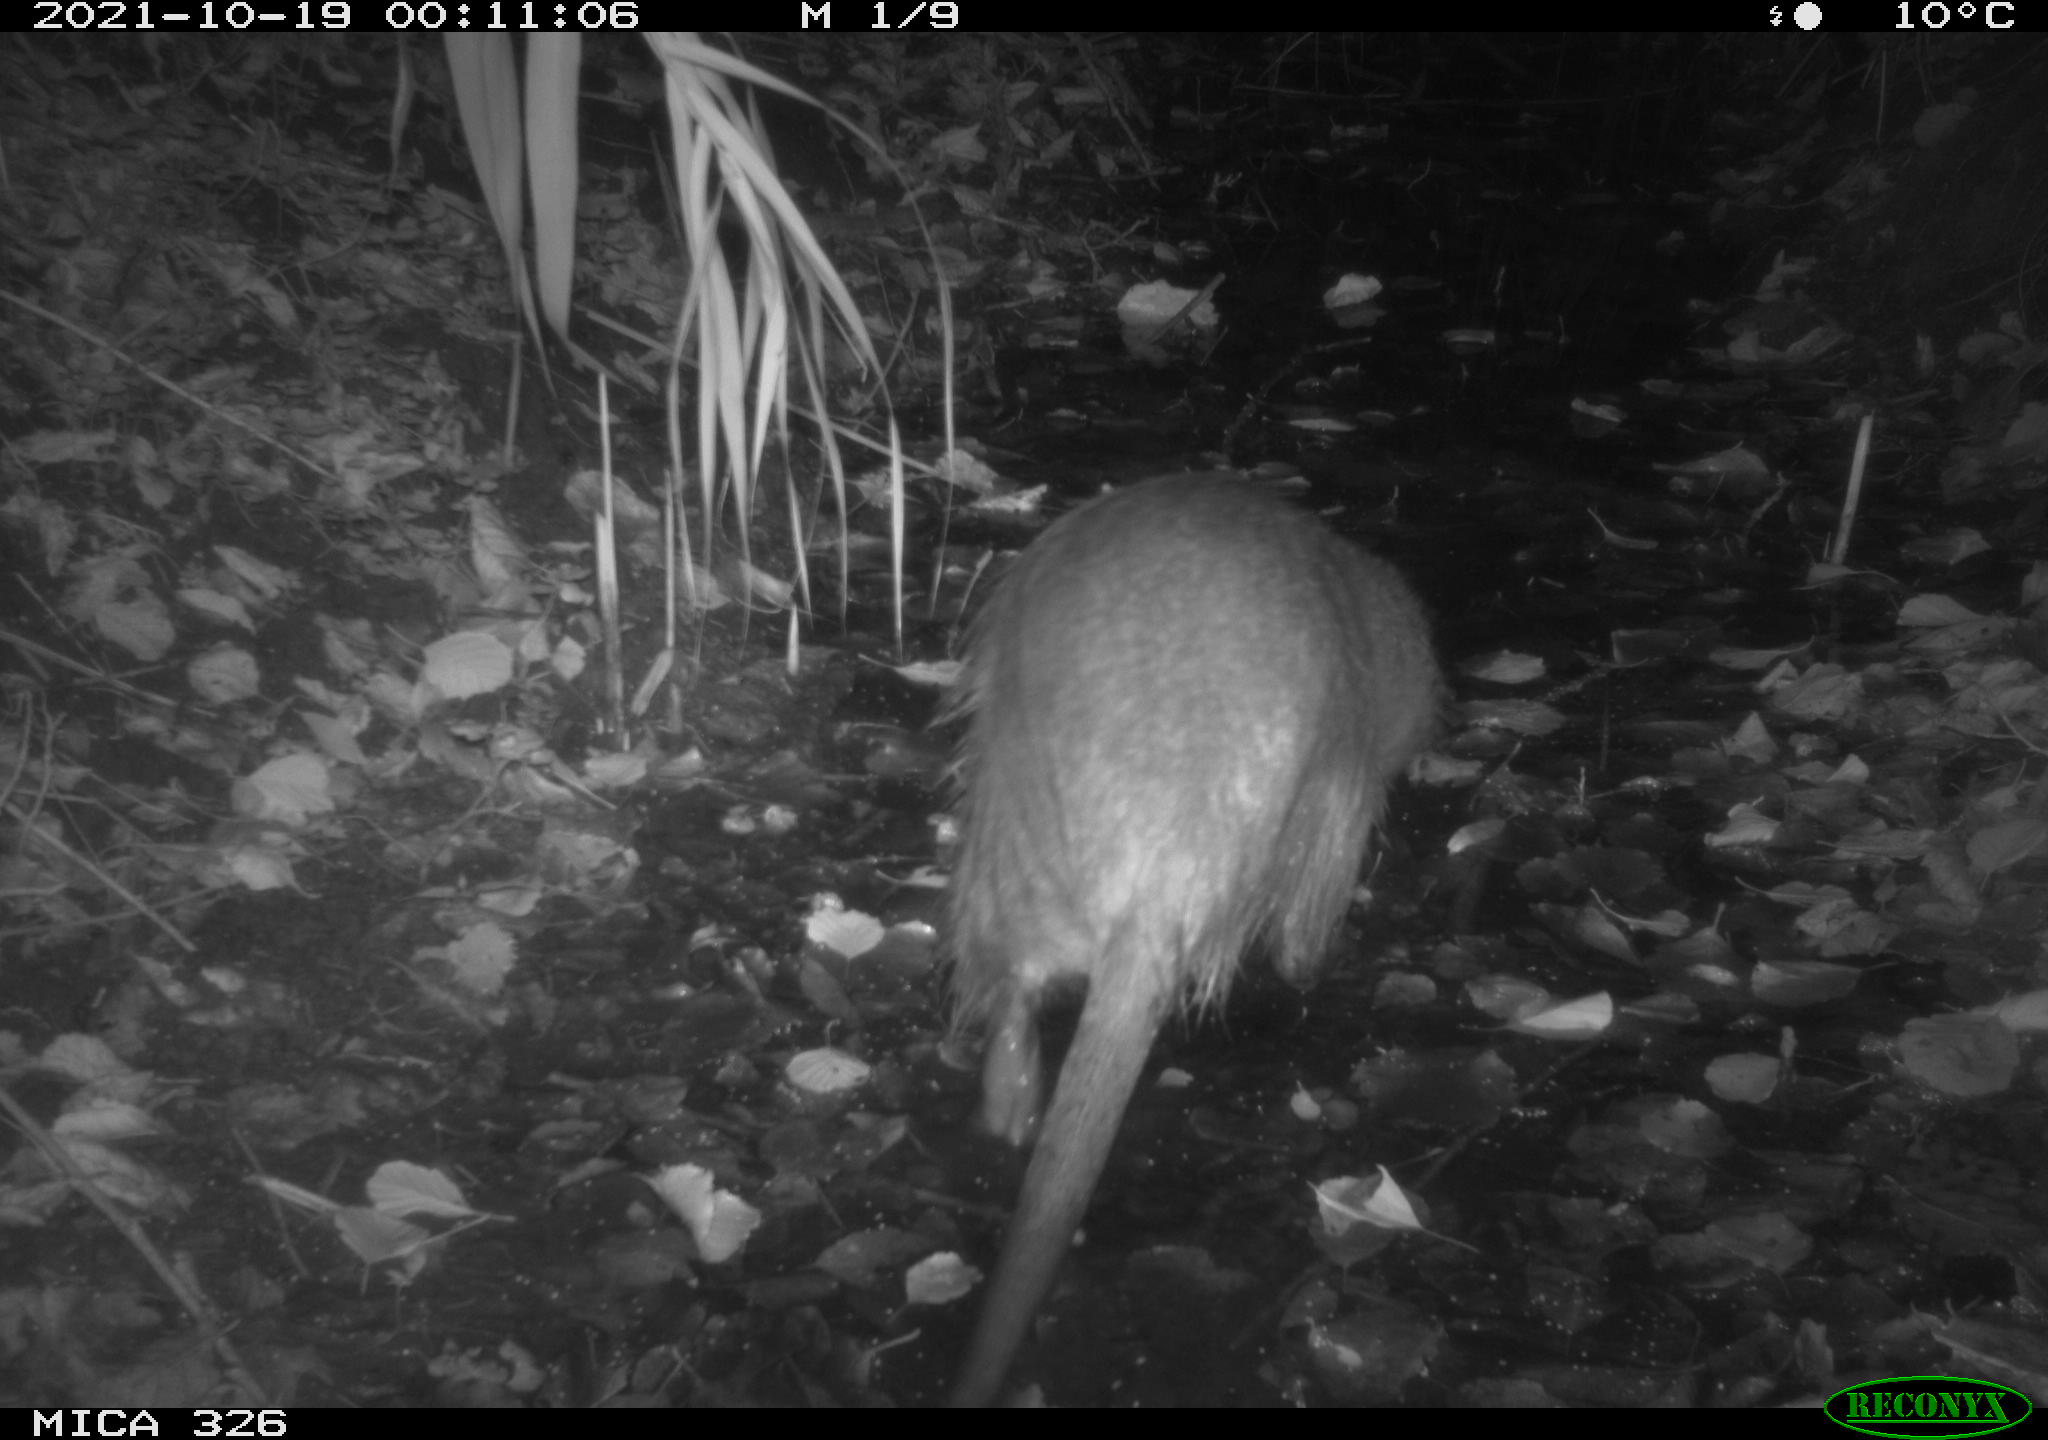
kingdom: Animalia
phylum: Chordata
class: Mammalia
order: Rodentia
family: Myocastoridae
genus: Myocastor
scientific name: Myocastor coypus
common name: Coypu
